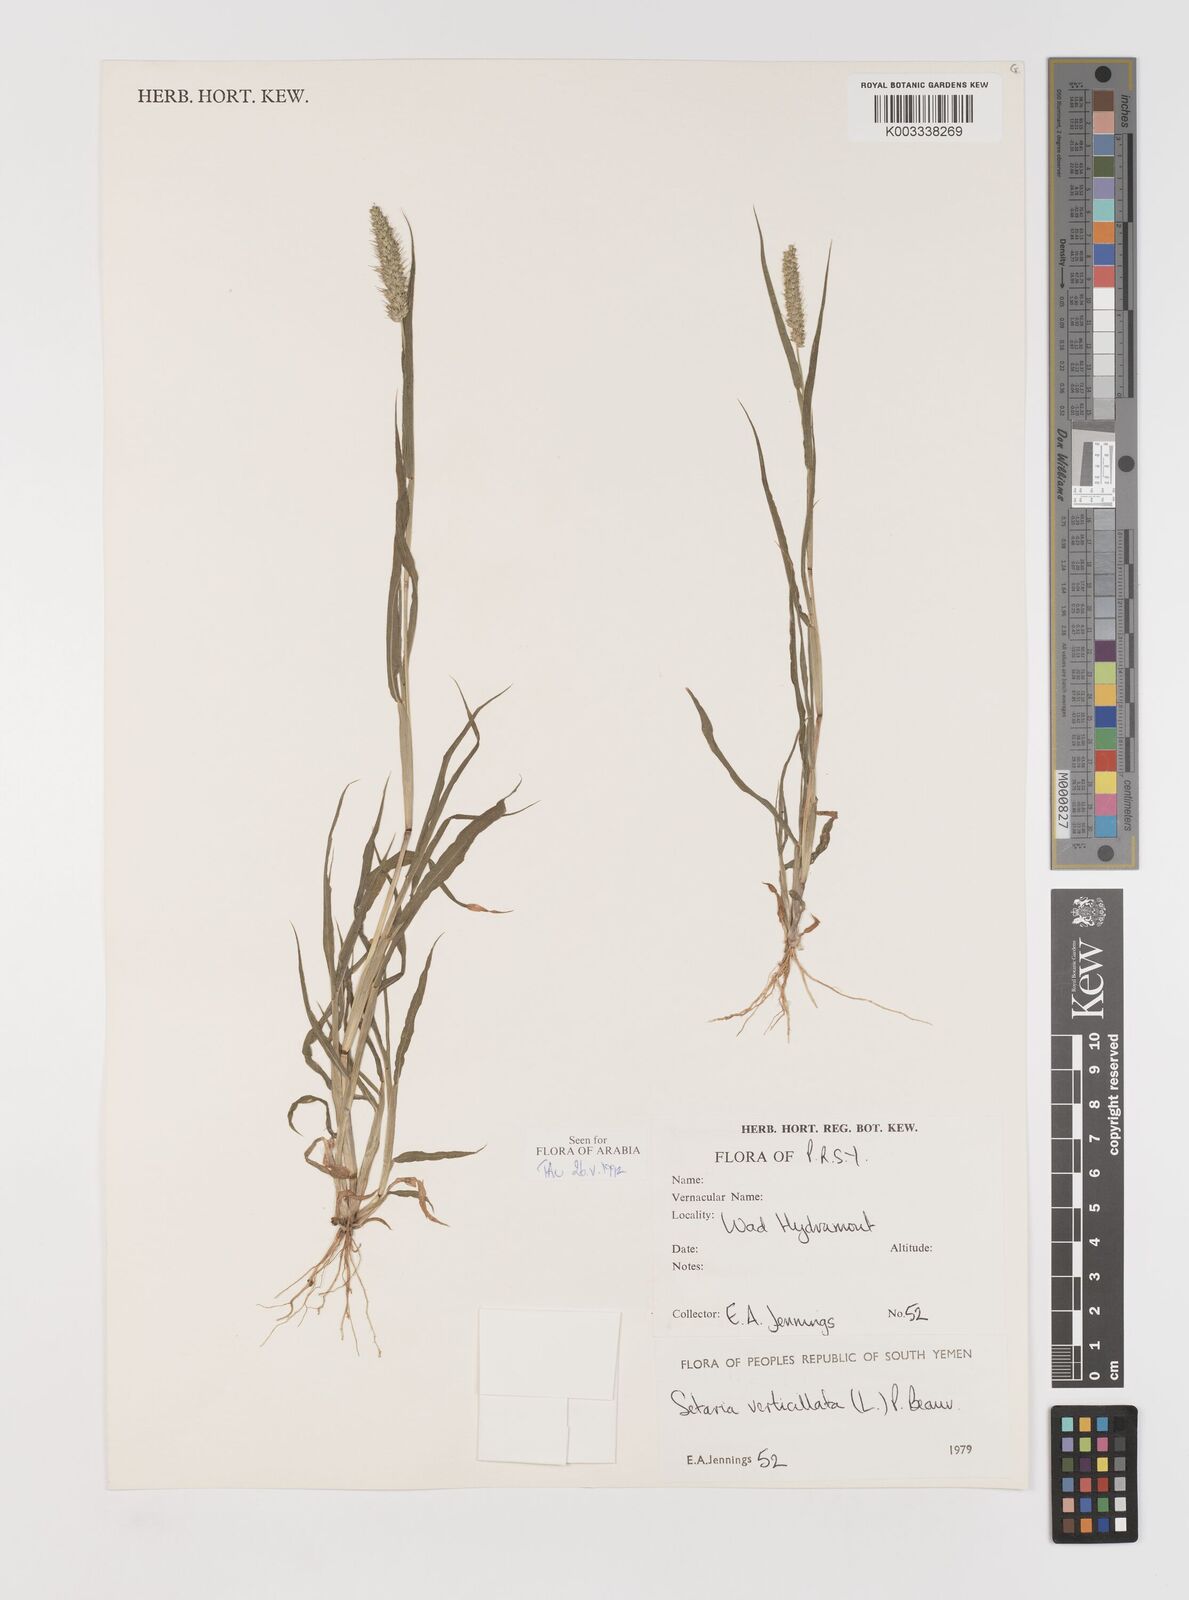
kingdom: Plantae
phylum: Tracheophyta
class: Liliopsida
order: Poales
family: Poaceae
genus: Setaria
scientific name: Setaria verticillata
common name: Hooked bristlegrass
